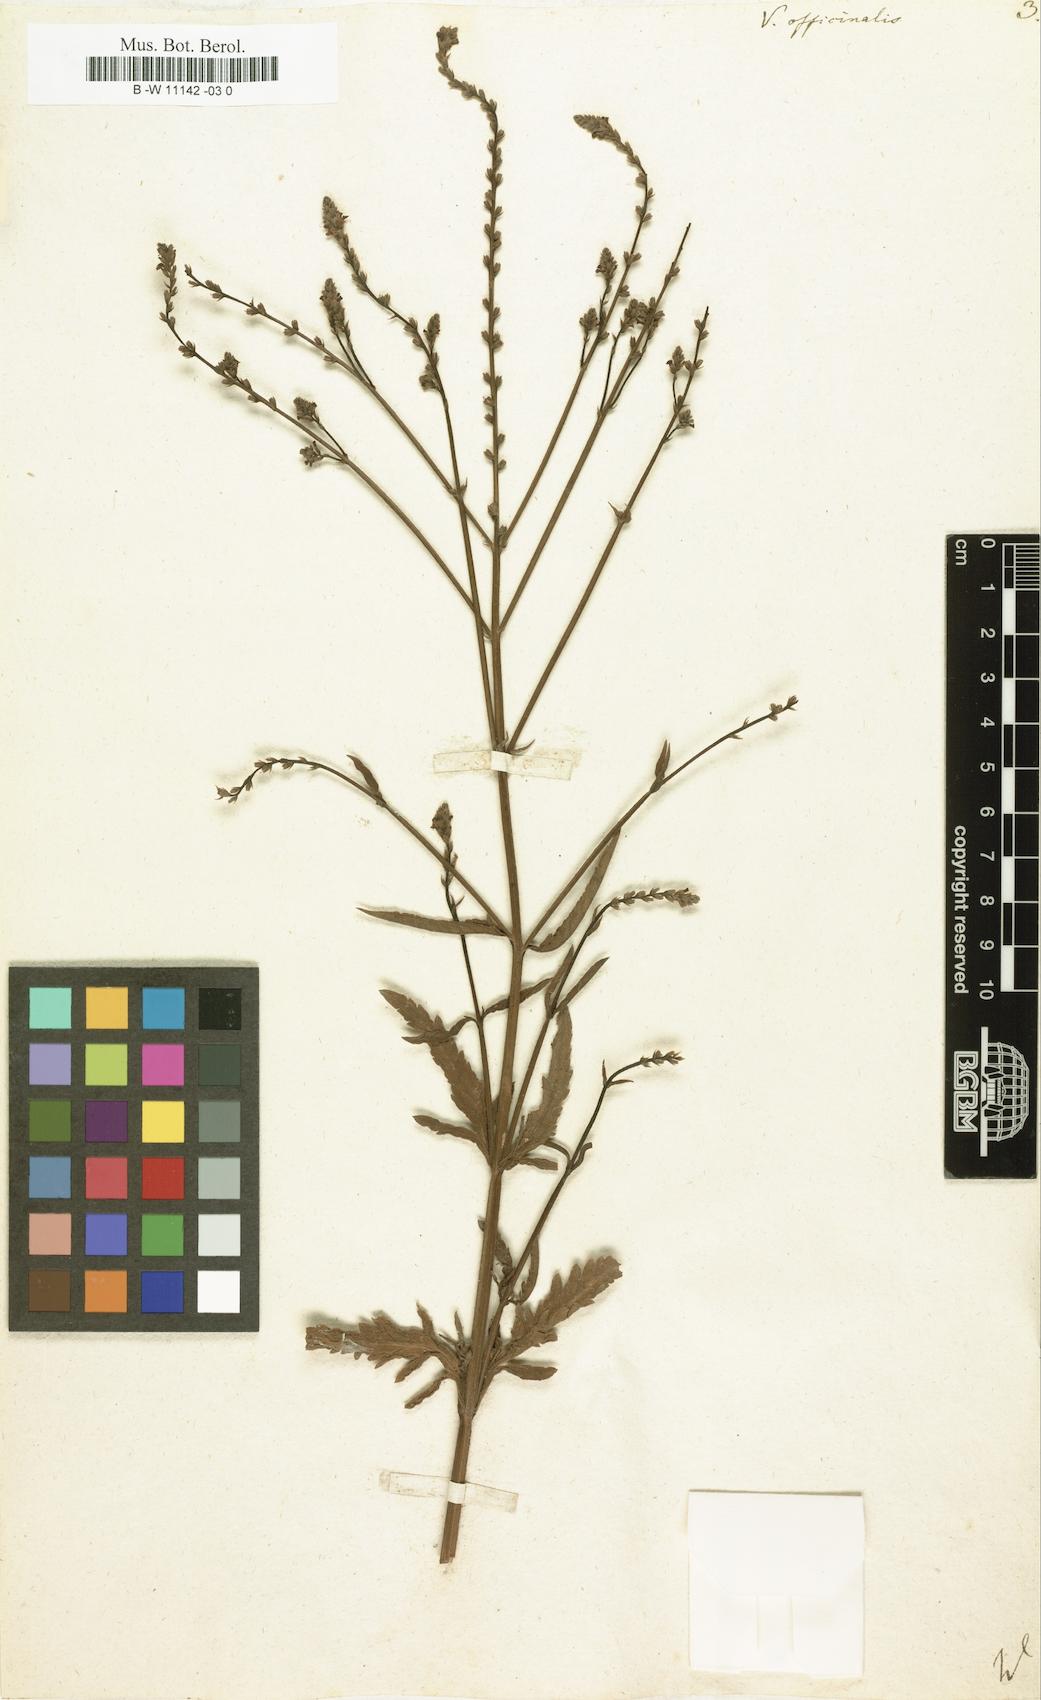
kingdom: Plantae
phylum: Tracheophyta
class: Magnoliopsida
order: Lamiales
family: Verbenaceae
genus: Verbena
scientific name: Verbena officinalis
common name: Vervain
